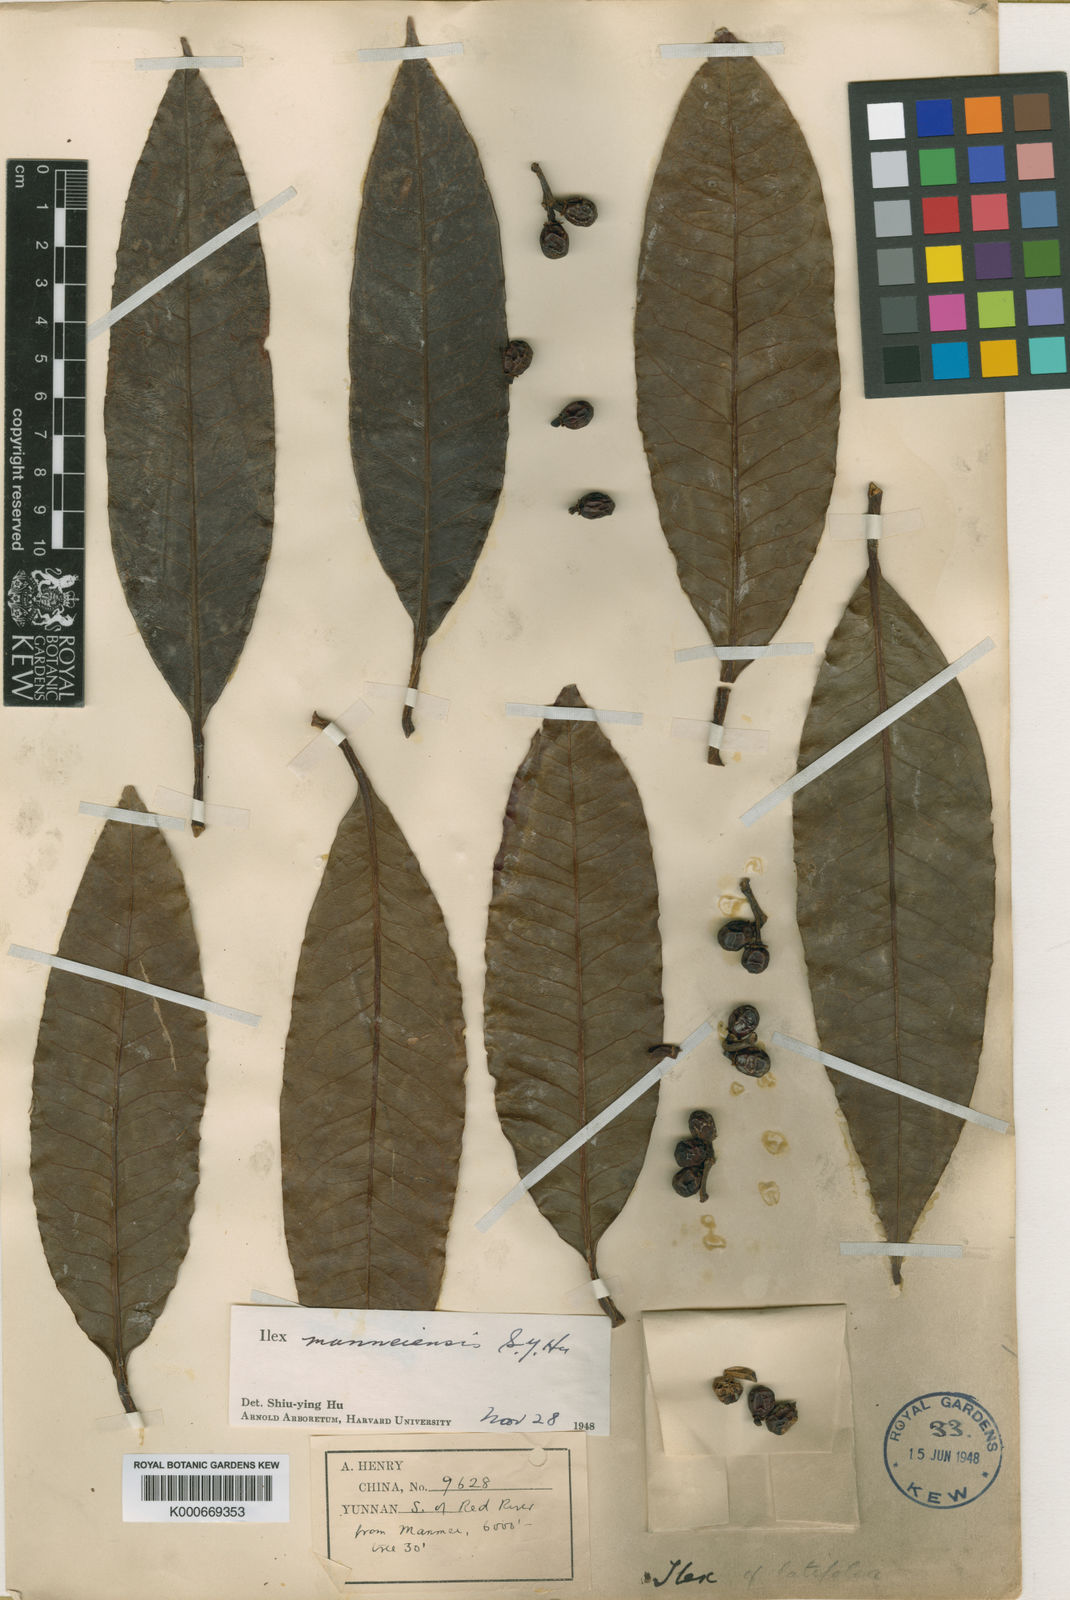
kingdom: Plantae
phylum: Tracheophyta
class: Magnoliopsida
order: Aquifoliales
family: Aquifoliaceae
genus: Ilex
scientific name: Ilex manneiensis
